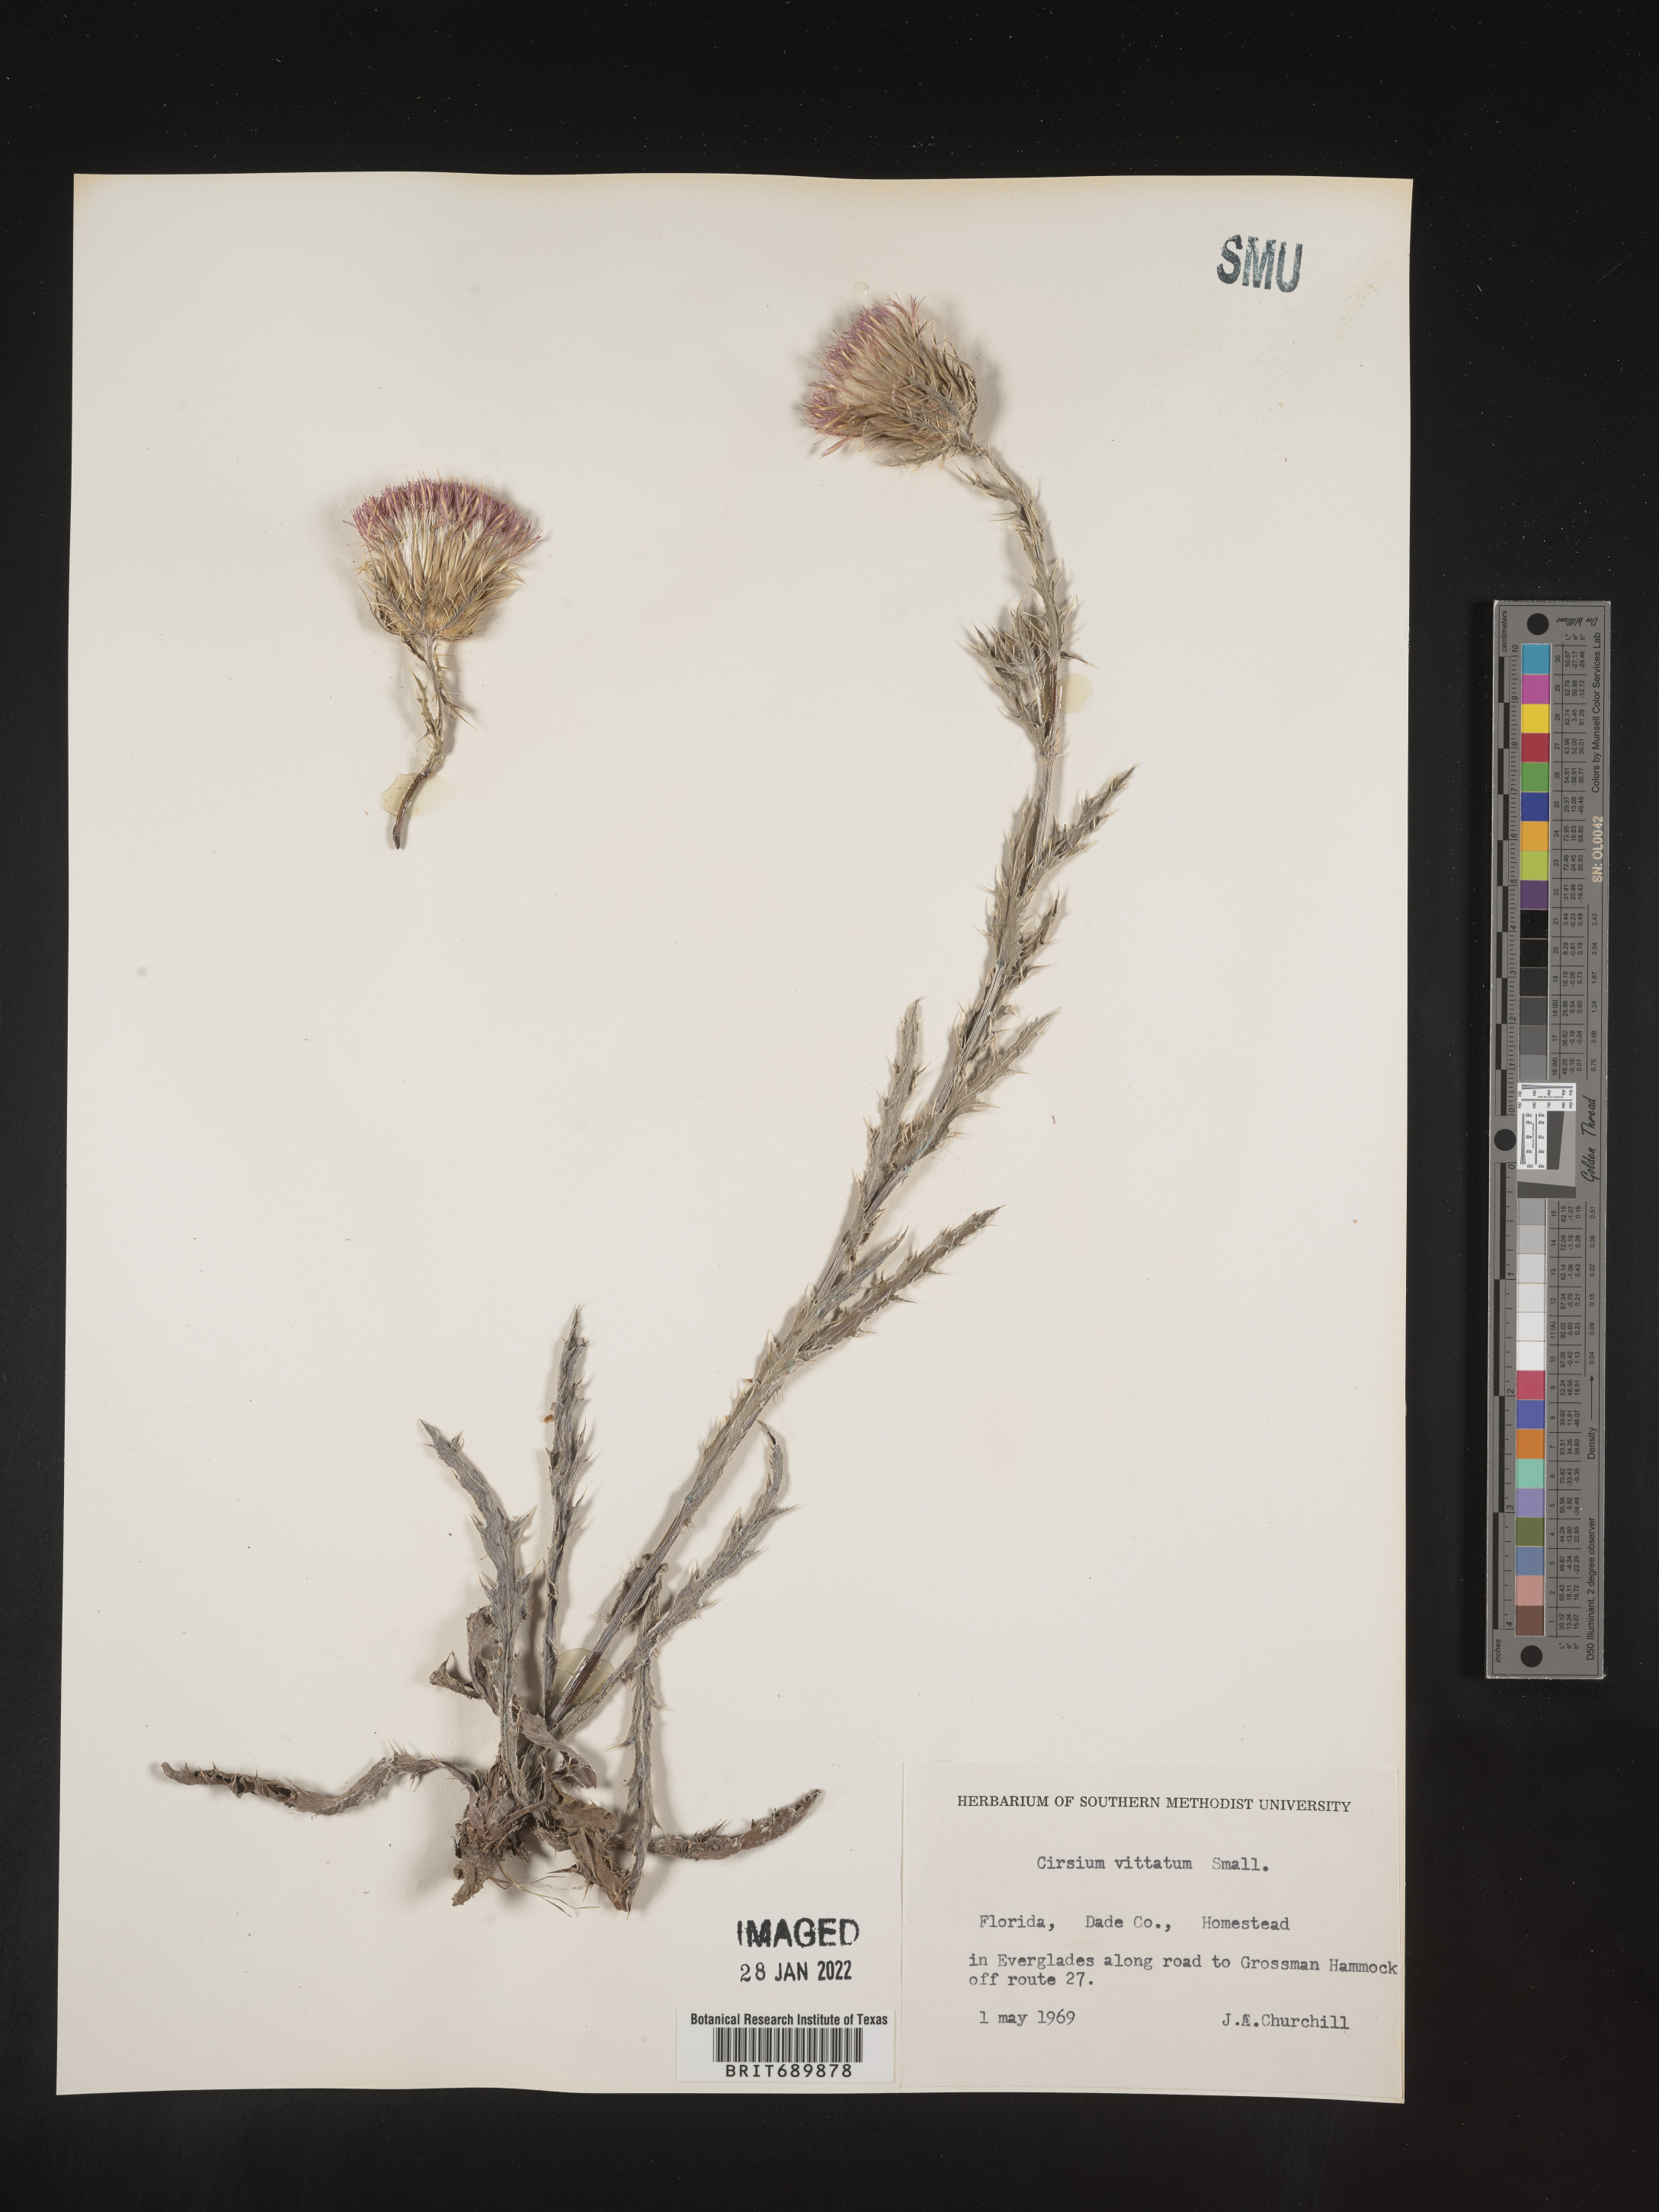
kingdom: Plantae
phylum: Tracheophyta
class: Magnoliopsida
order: Asterales
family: Asteraceae
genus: Cirsium
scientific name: Cirsium
